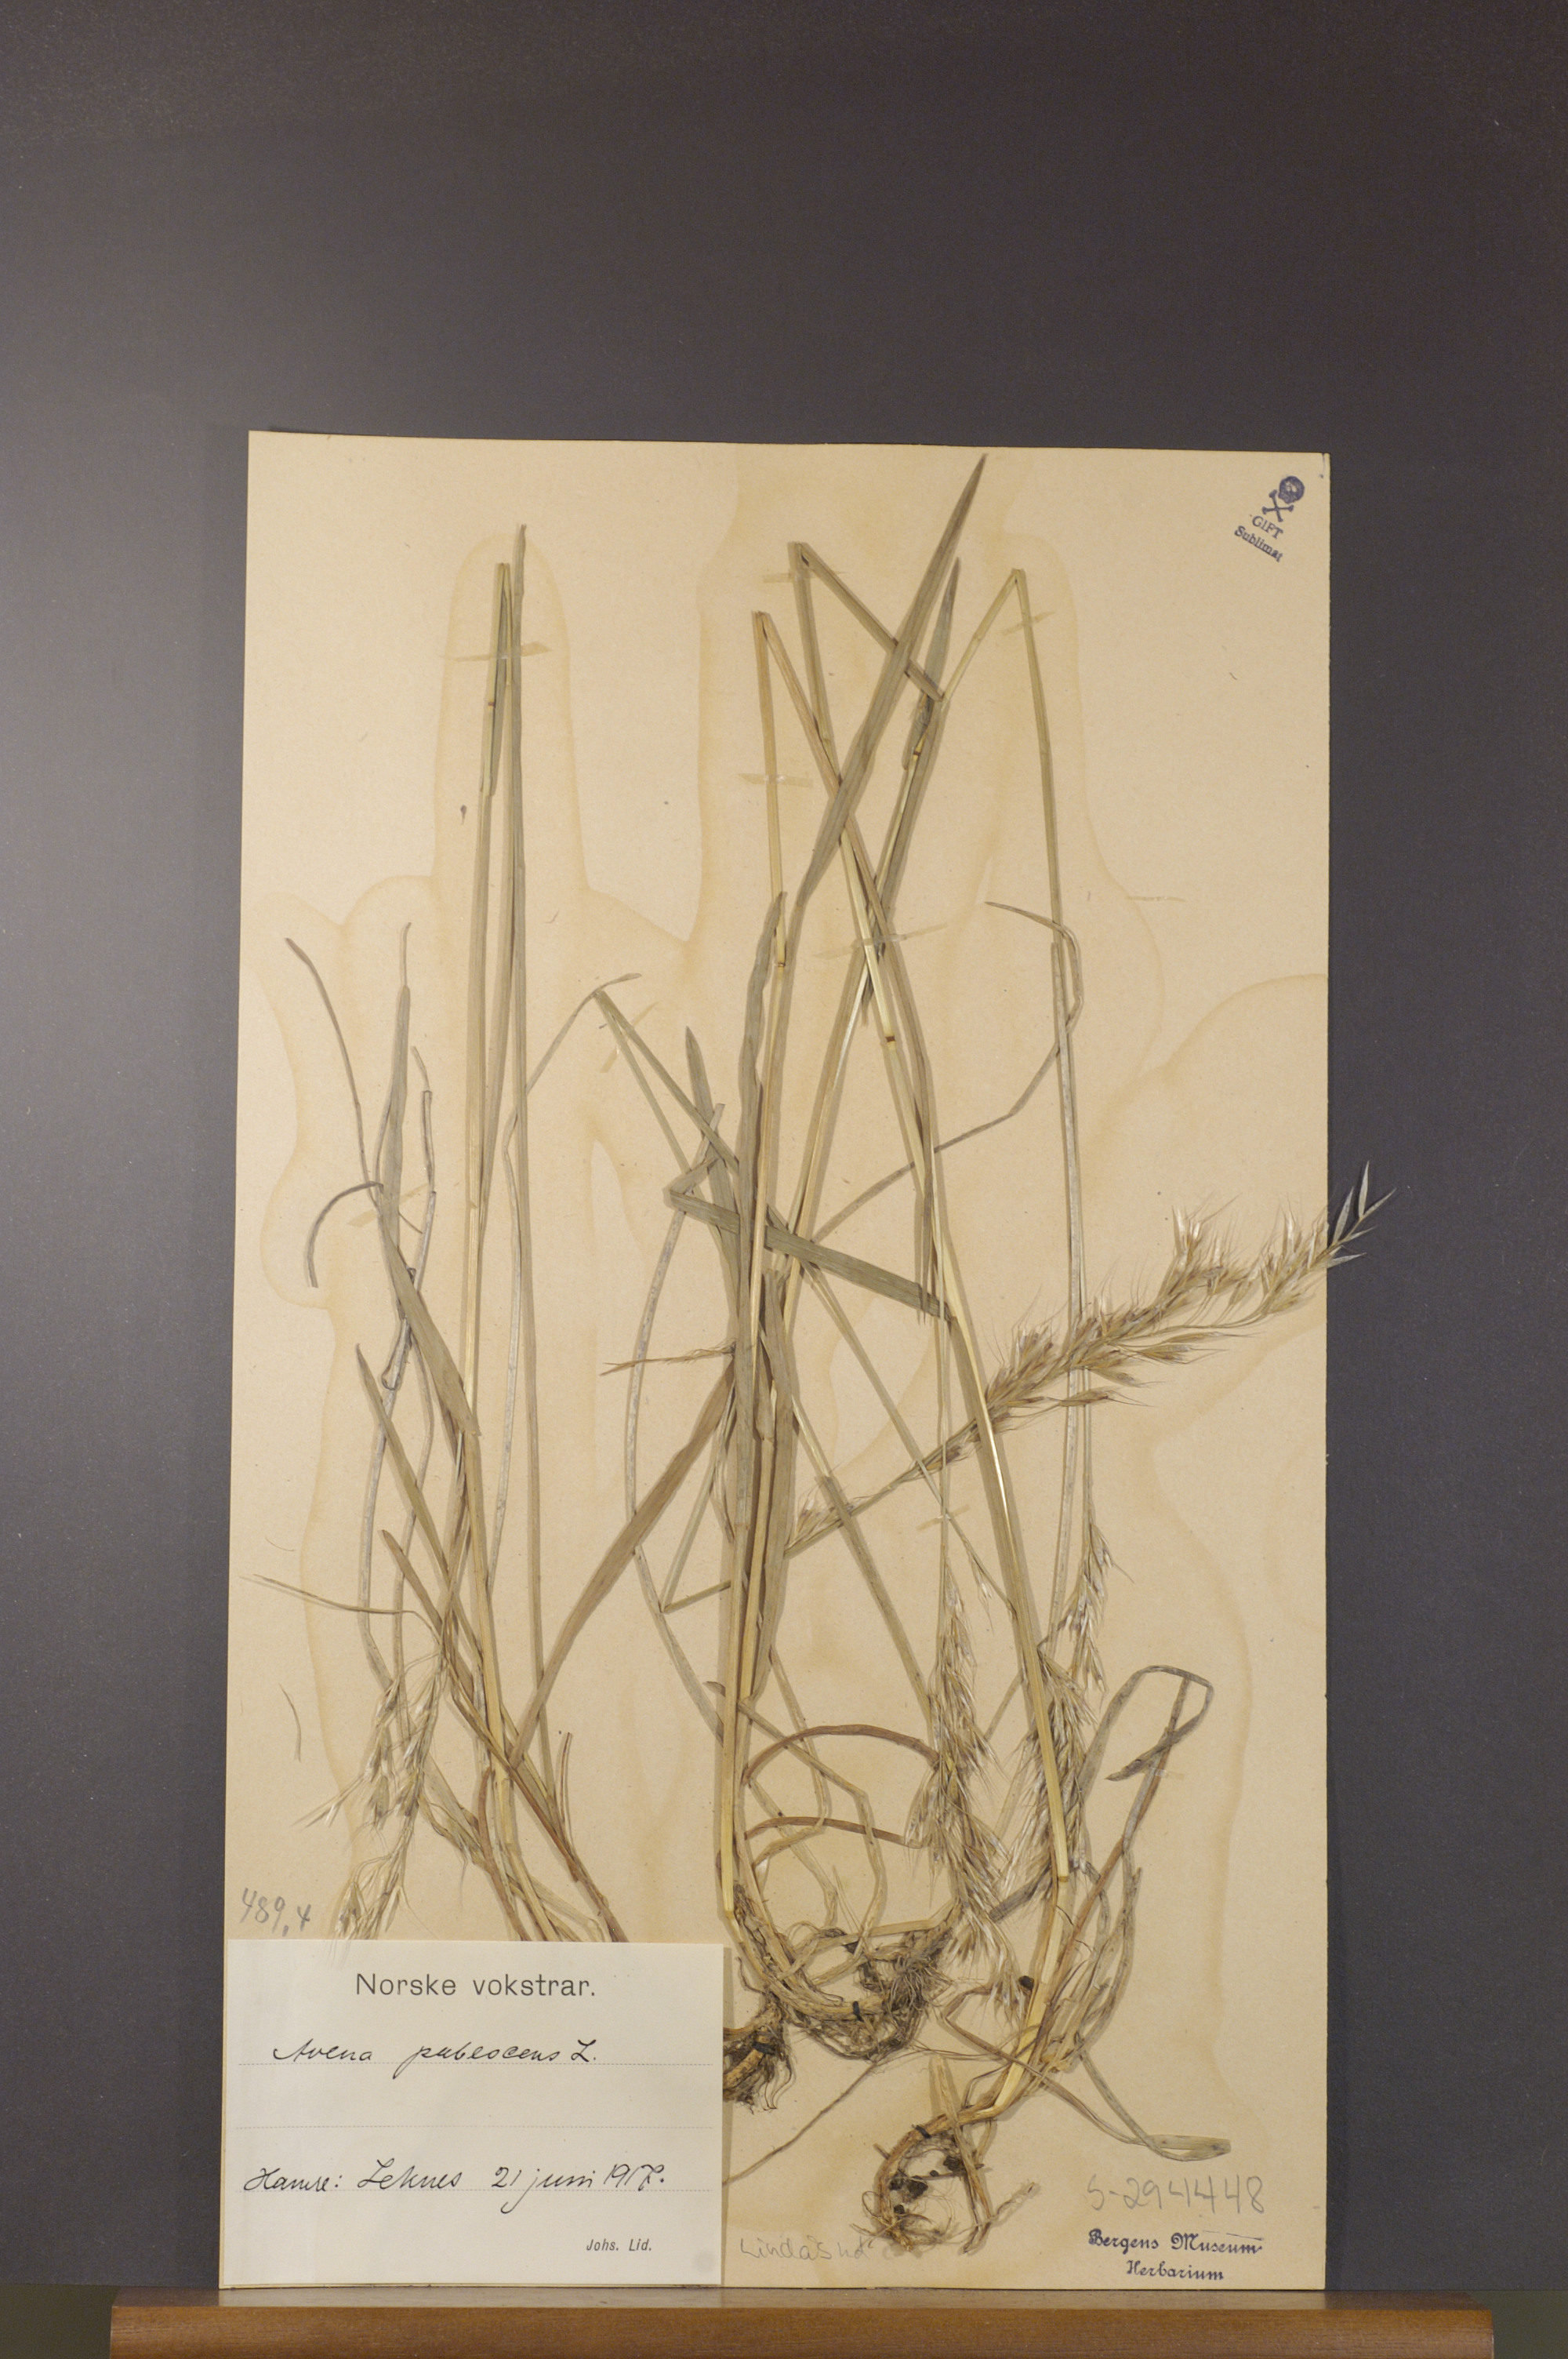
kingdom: Plantae
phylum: Tracheophyta
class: Liliopsida
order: Poales
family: Poaceae
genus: Avenula
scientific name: Avenula pubescens
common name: Downy alpine oatgrass
